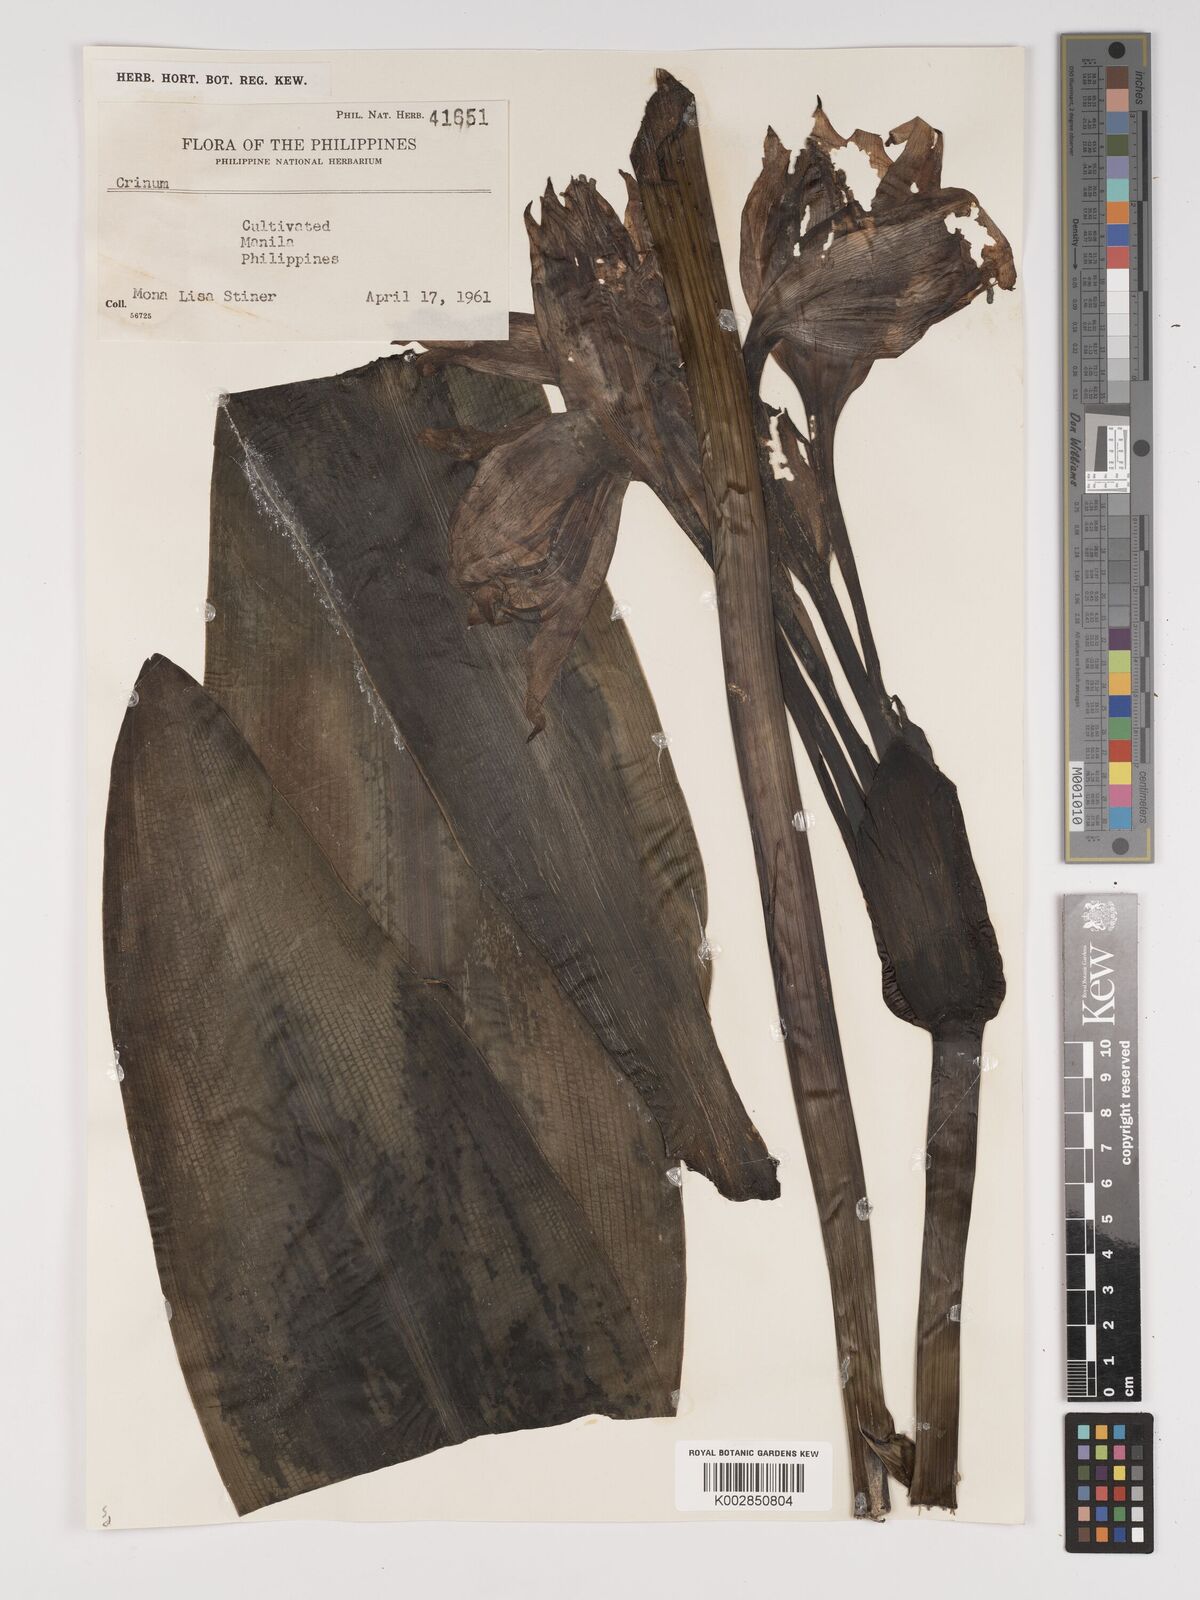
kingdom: Plantae
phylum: Tracheophyta
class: Liliopsida
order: Asparagales
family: Amaryllidaceae
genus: Crinum
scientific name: Crinum
